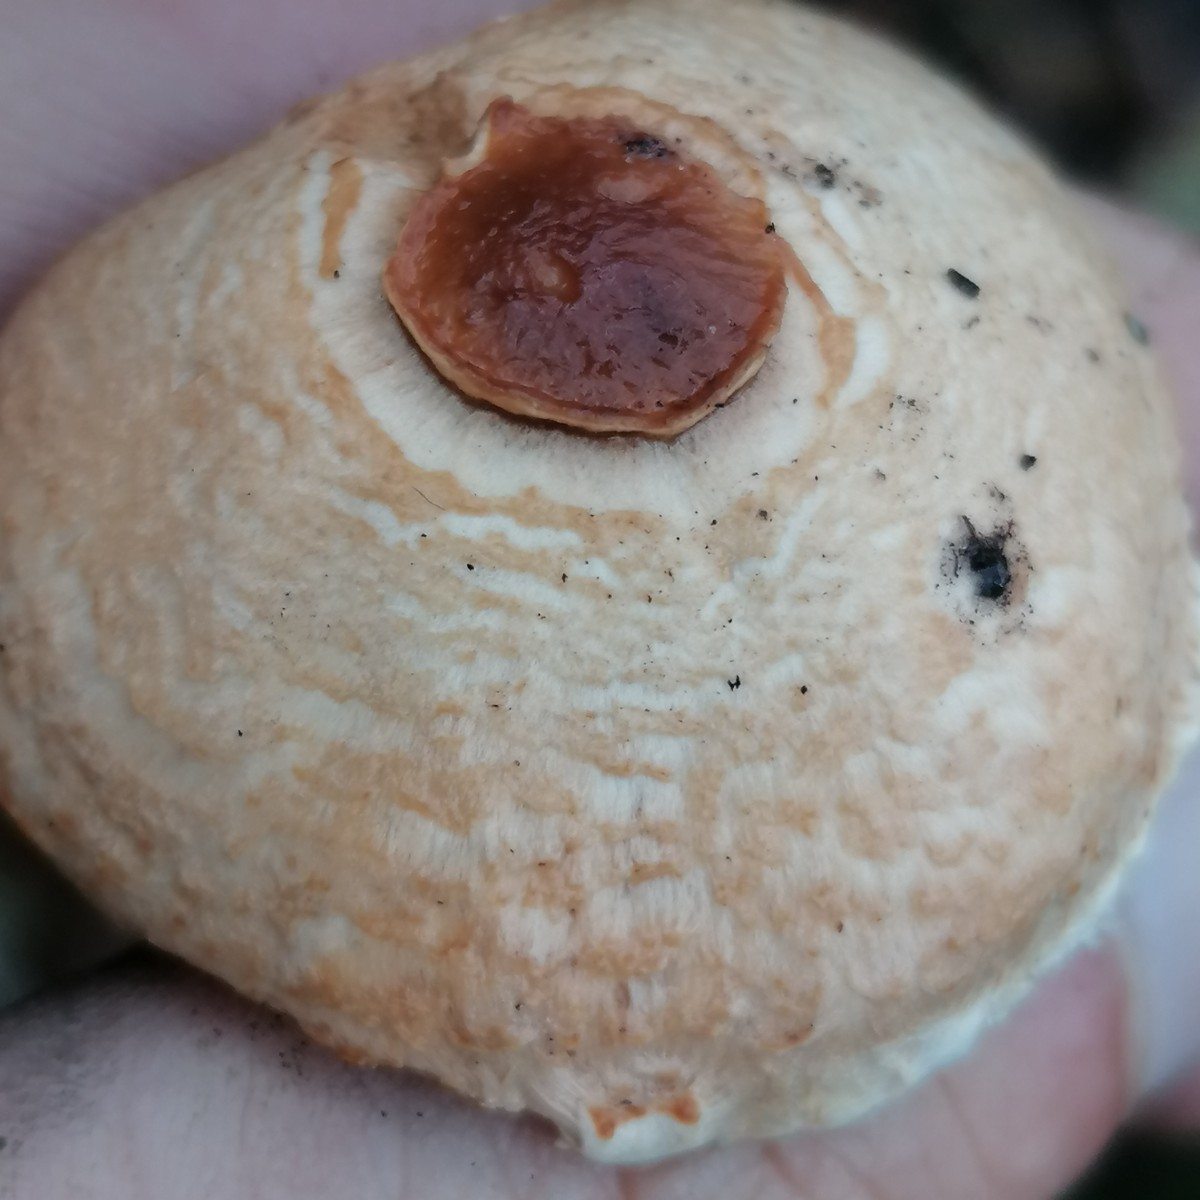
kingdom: Fungi
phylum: Basidiomycota
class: Agaricomycetes
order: Agaricales
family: Agaricaceae
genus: Lepiota
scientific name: Lepiota
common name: parasolhat
